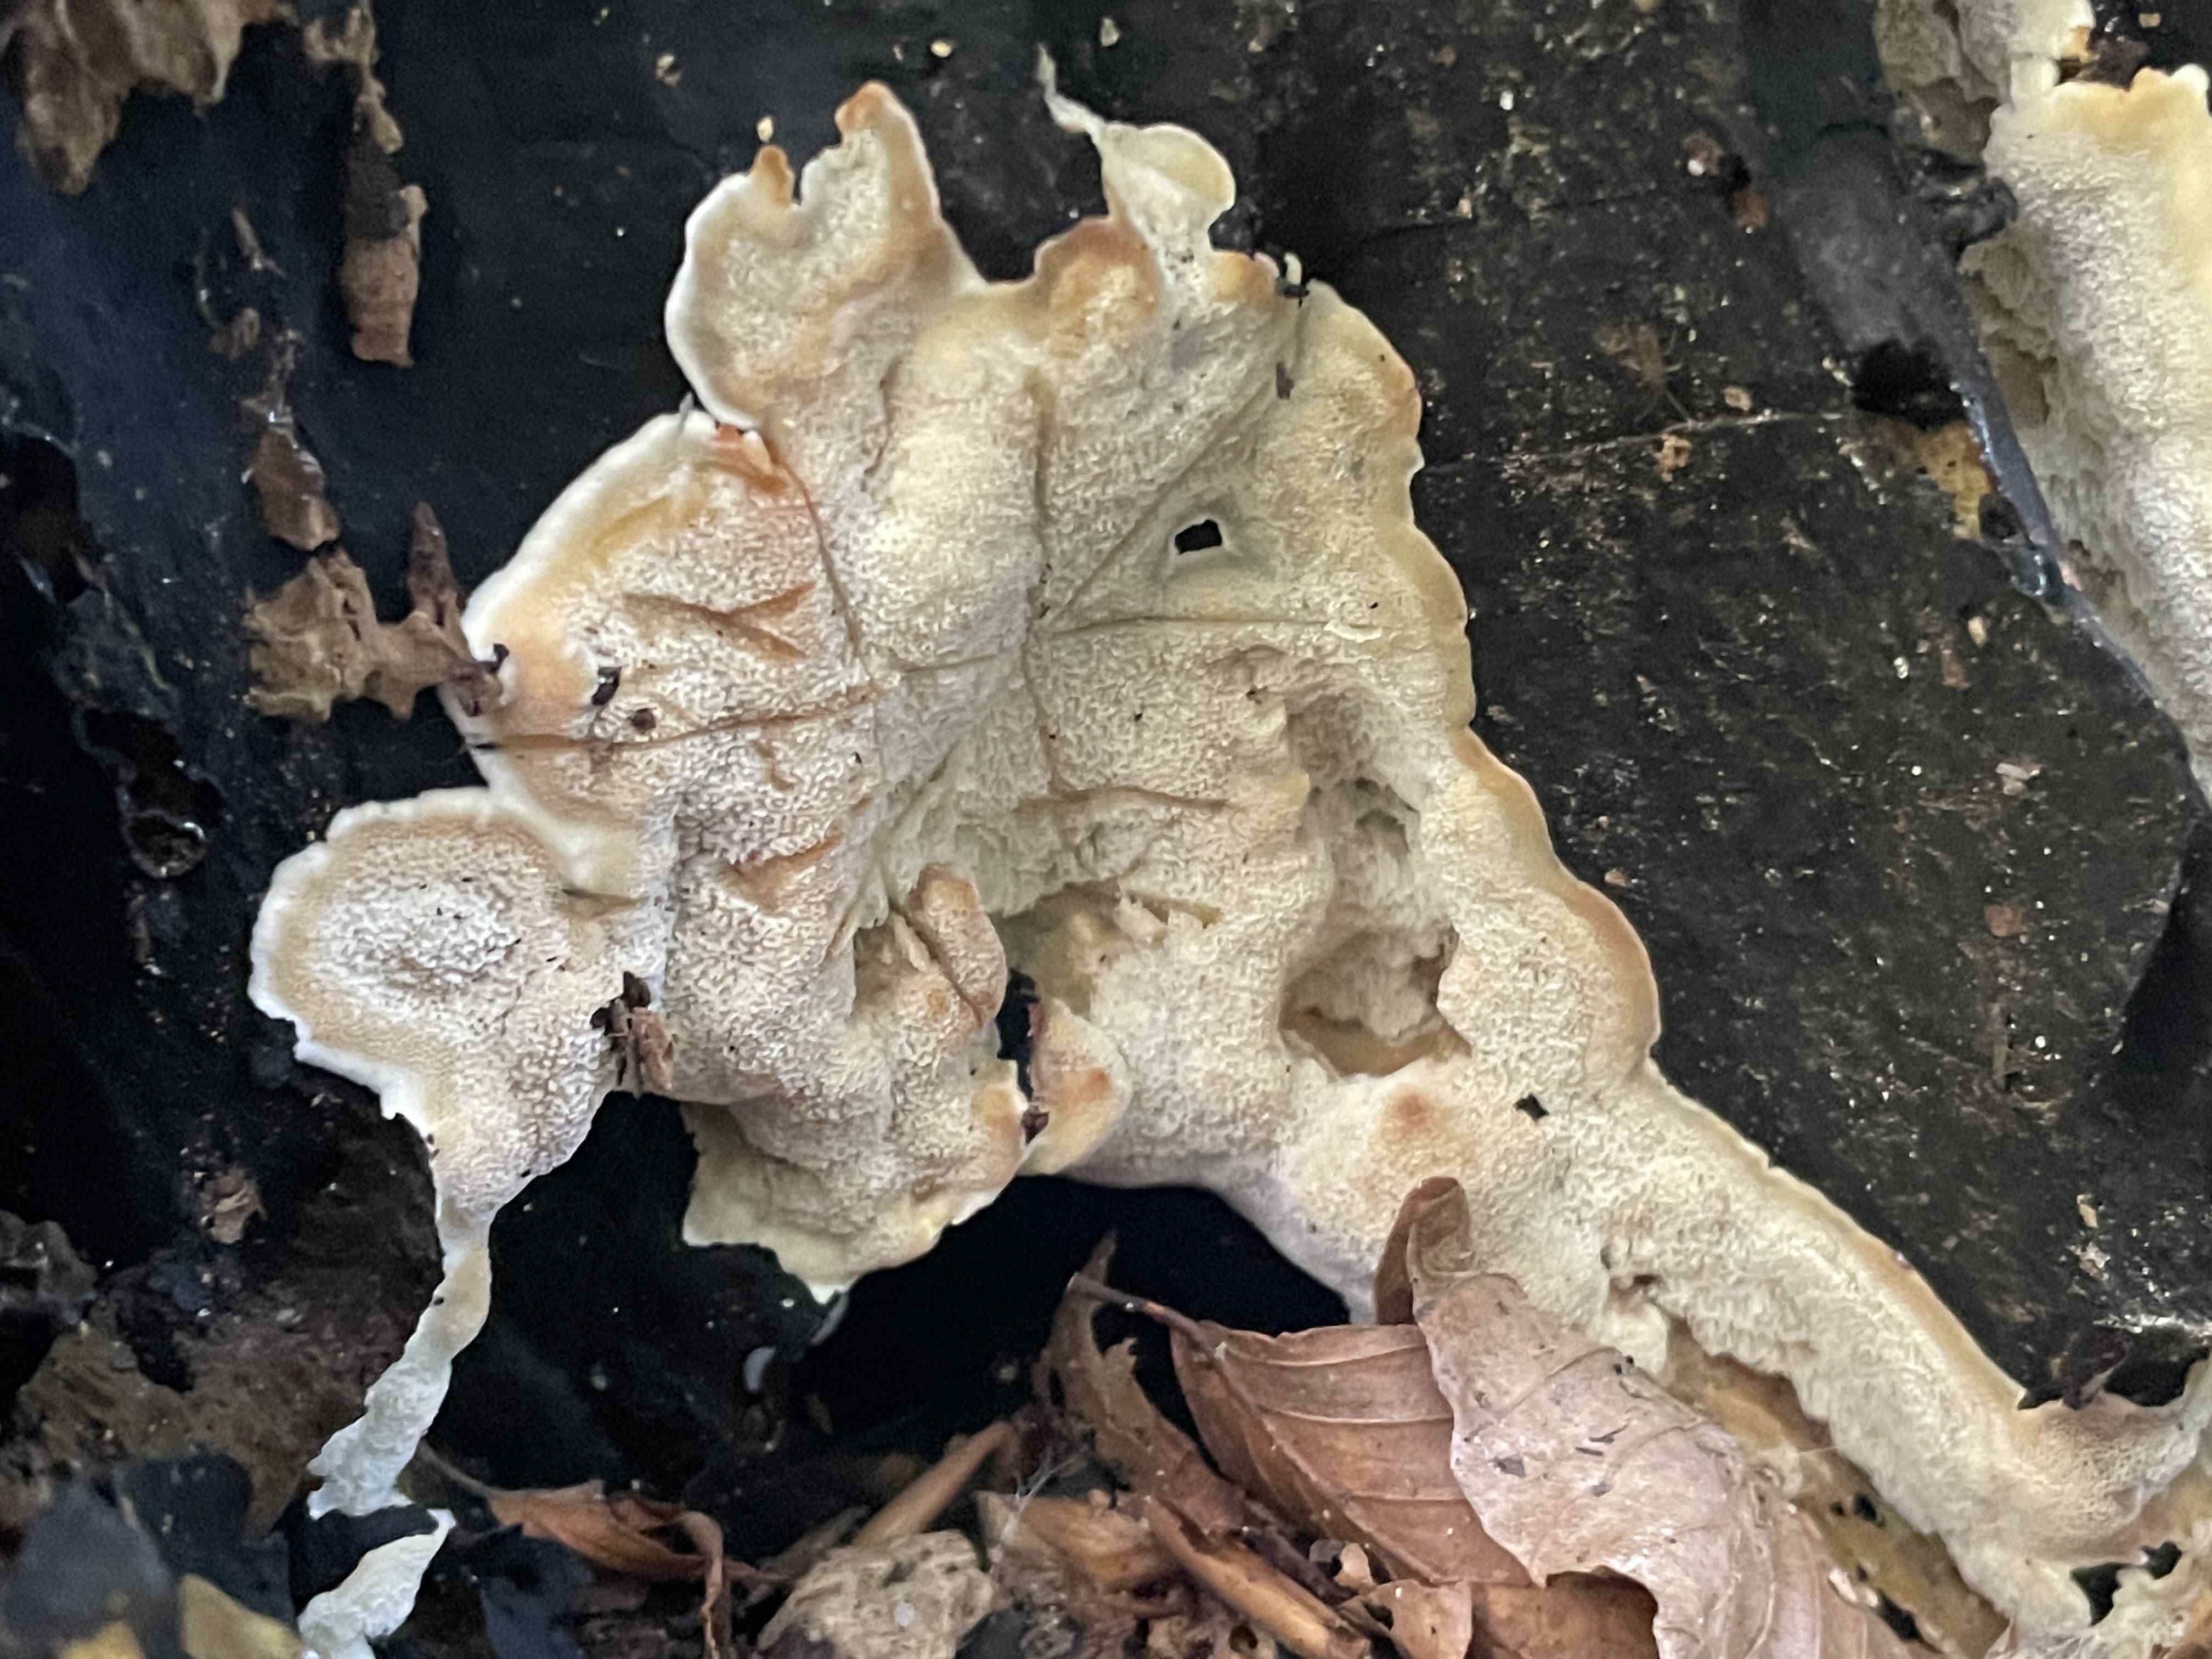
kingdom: Fungi
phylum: Basidiomycota
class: Agaricomycetes
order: Polyporales
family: Meruliaceae
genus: Physisporinus
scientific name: Physisporinus vitreus
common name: mastesvamp
